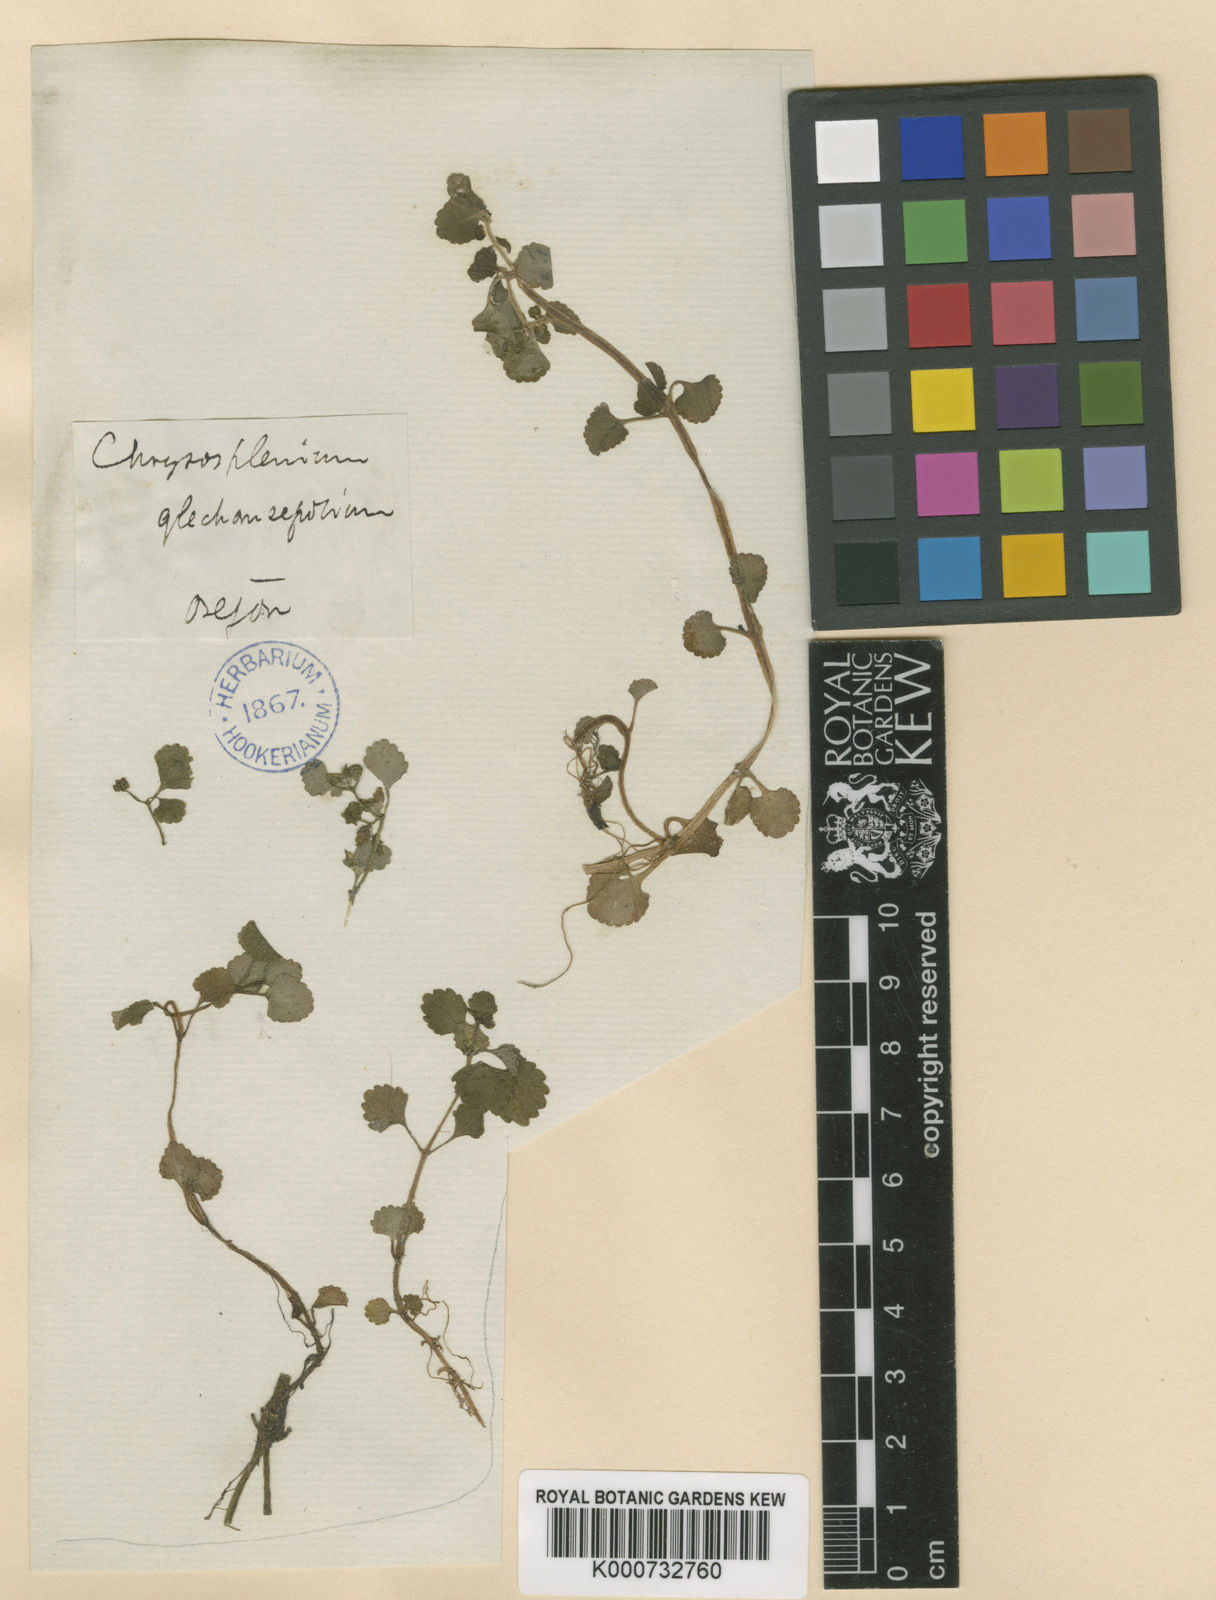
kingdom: Plantae
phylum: Tracheophyta
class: Magnoliopsida
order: Saxifragales
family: Saxifragaceae
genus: Chrysosplenium
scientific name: Chrysosplenium glechomifolium
